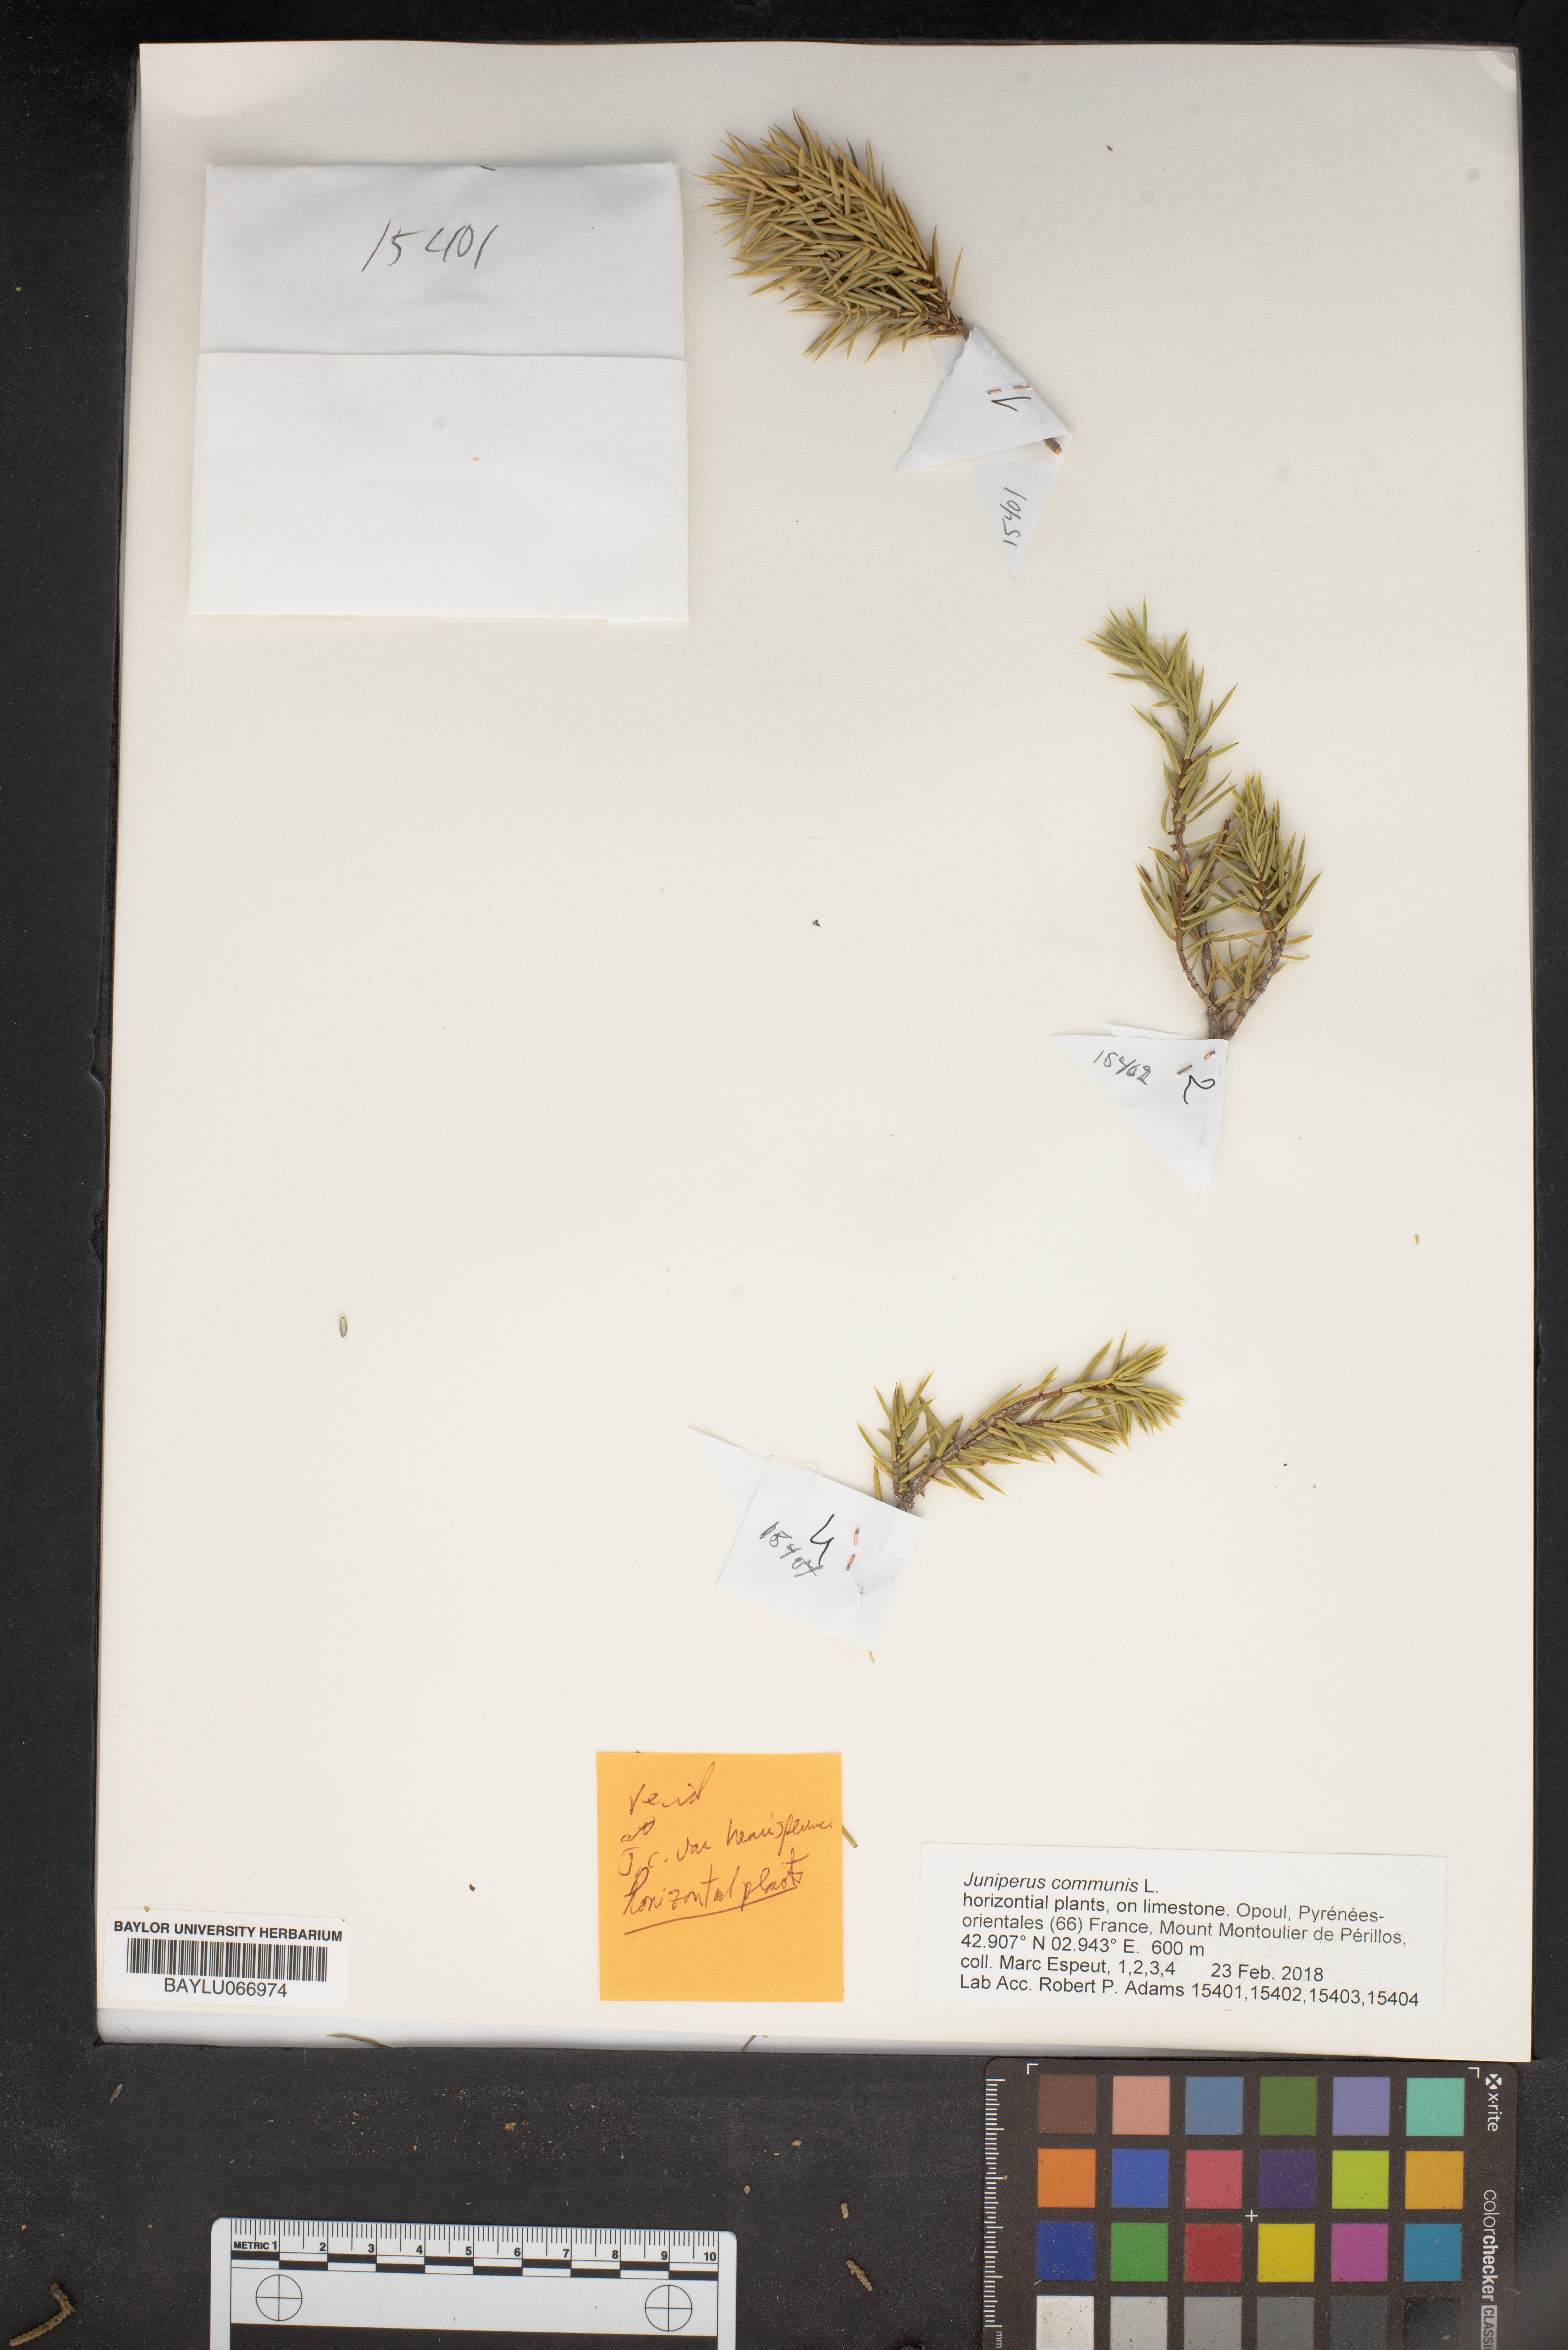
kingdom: Plantae
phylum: Tracheophyta
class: Pinopsida
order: Pinales
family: Cupressaceae
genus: Juniperus
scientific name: Juniperus communis
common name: Common juniper
